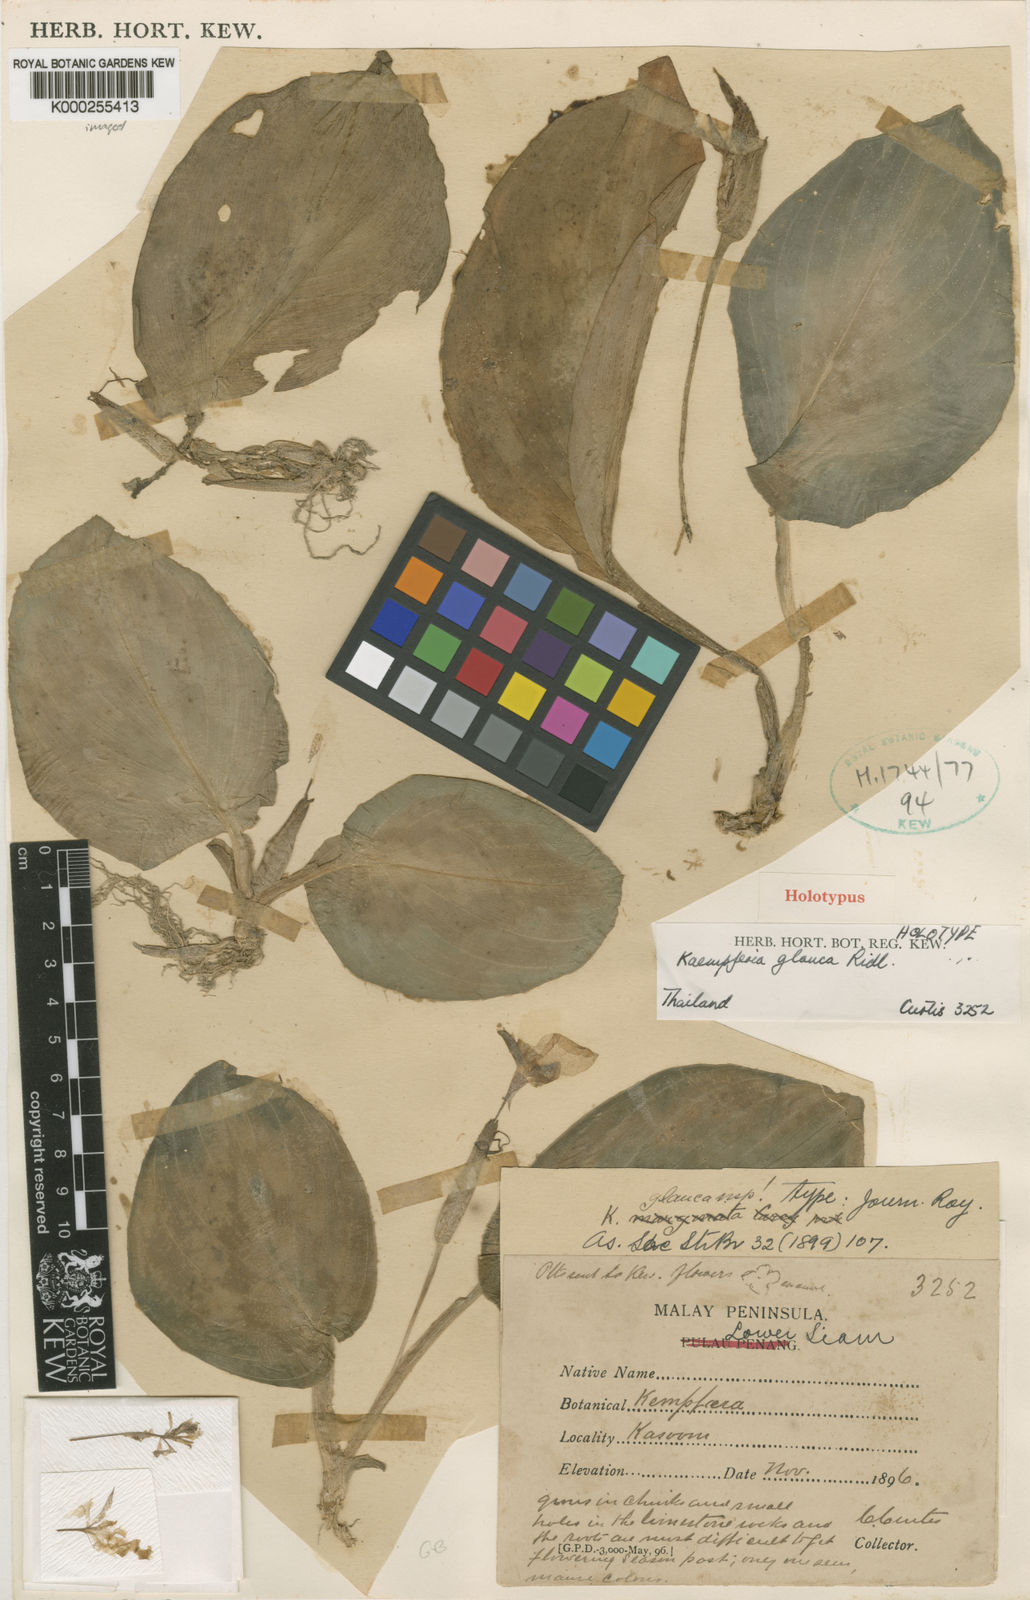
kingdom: Plantae
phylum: Tracheophyta
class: Liliopsida
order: Zingiberales
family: Zingiberaceae
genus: Kaempferia
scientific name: Kaempferia glauca
